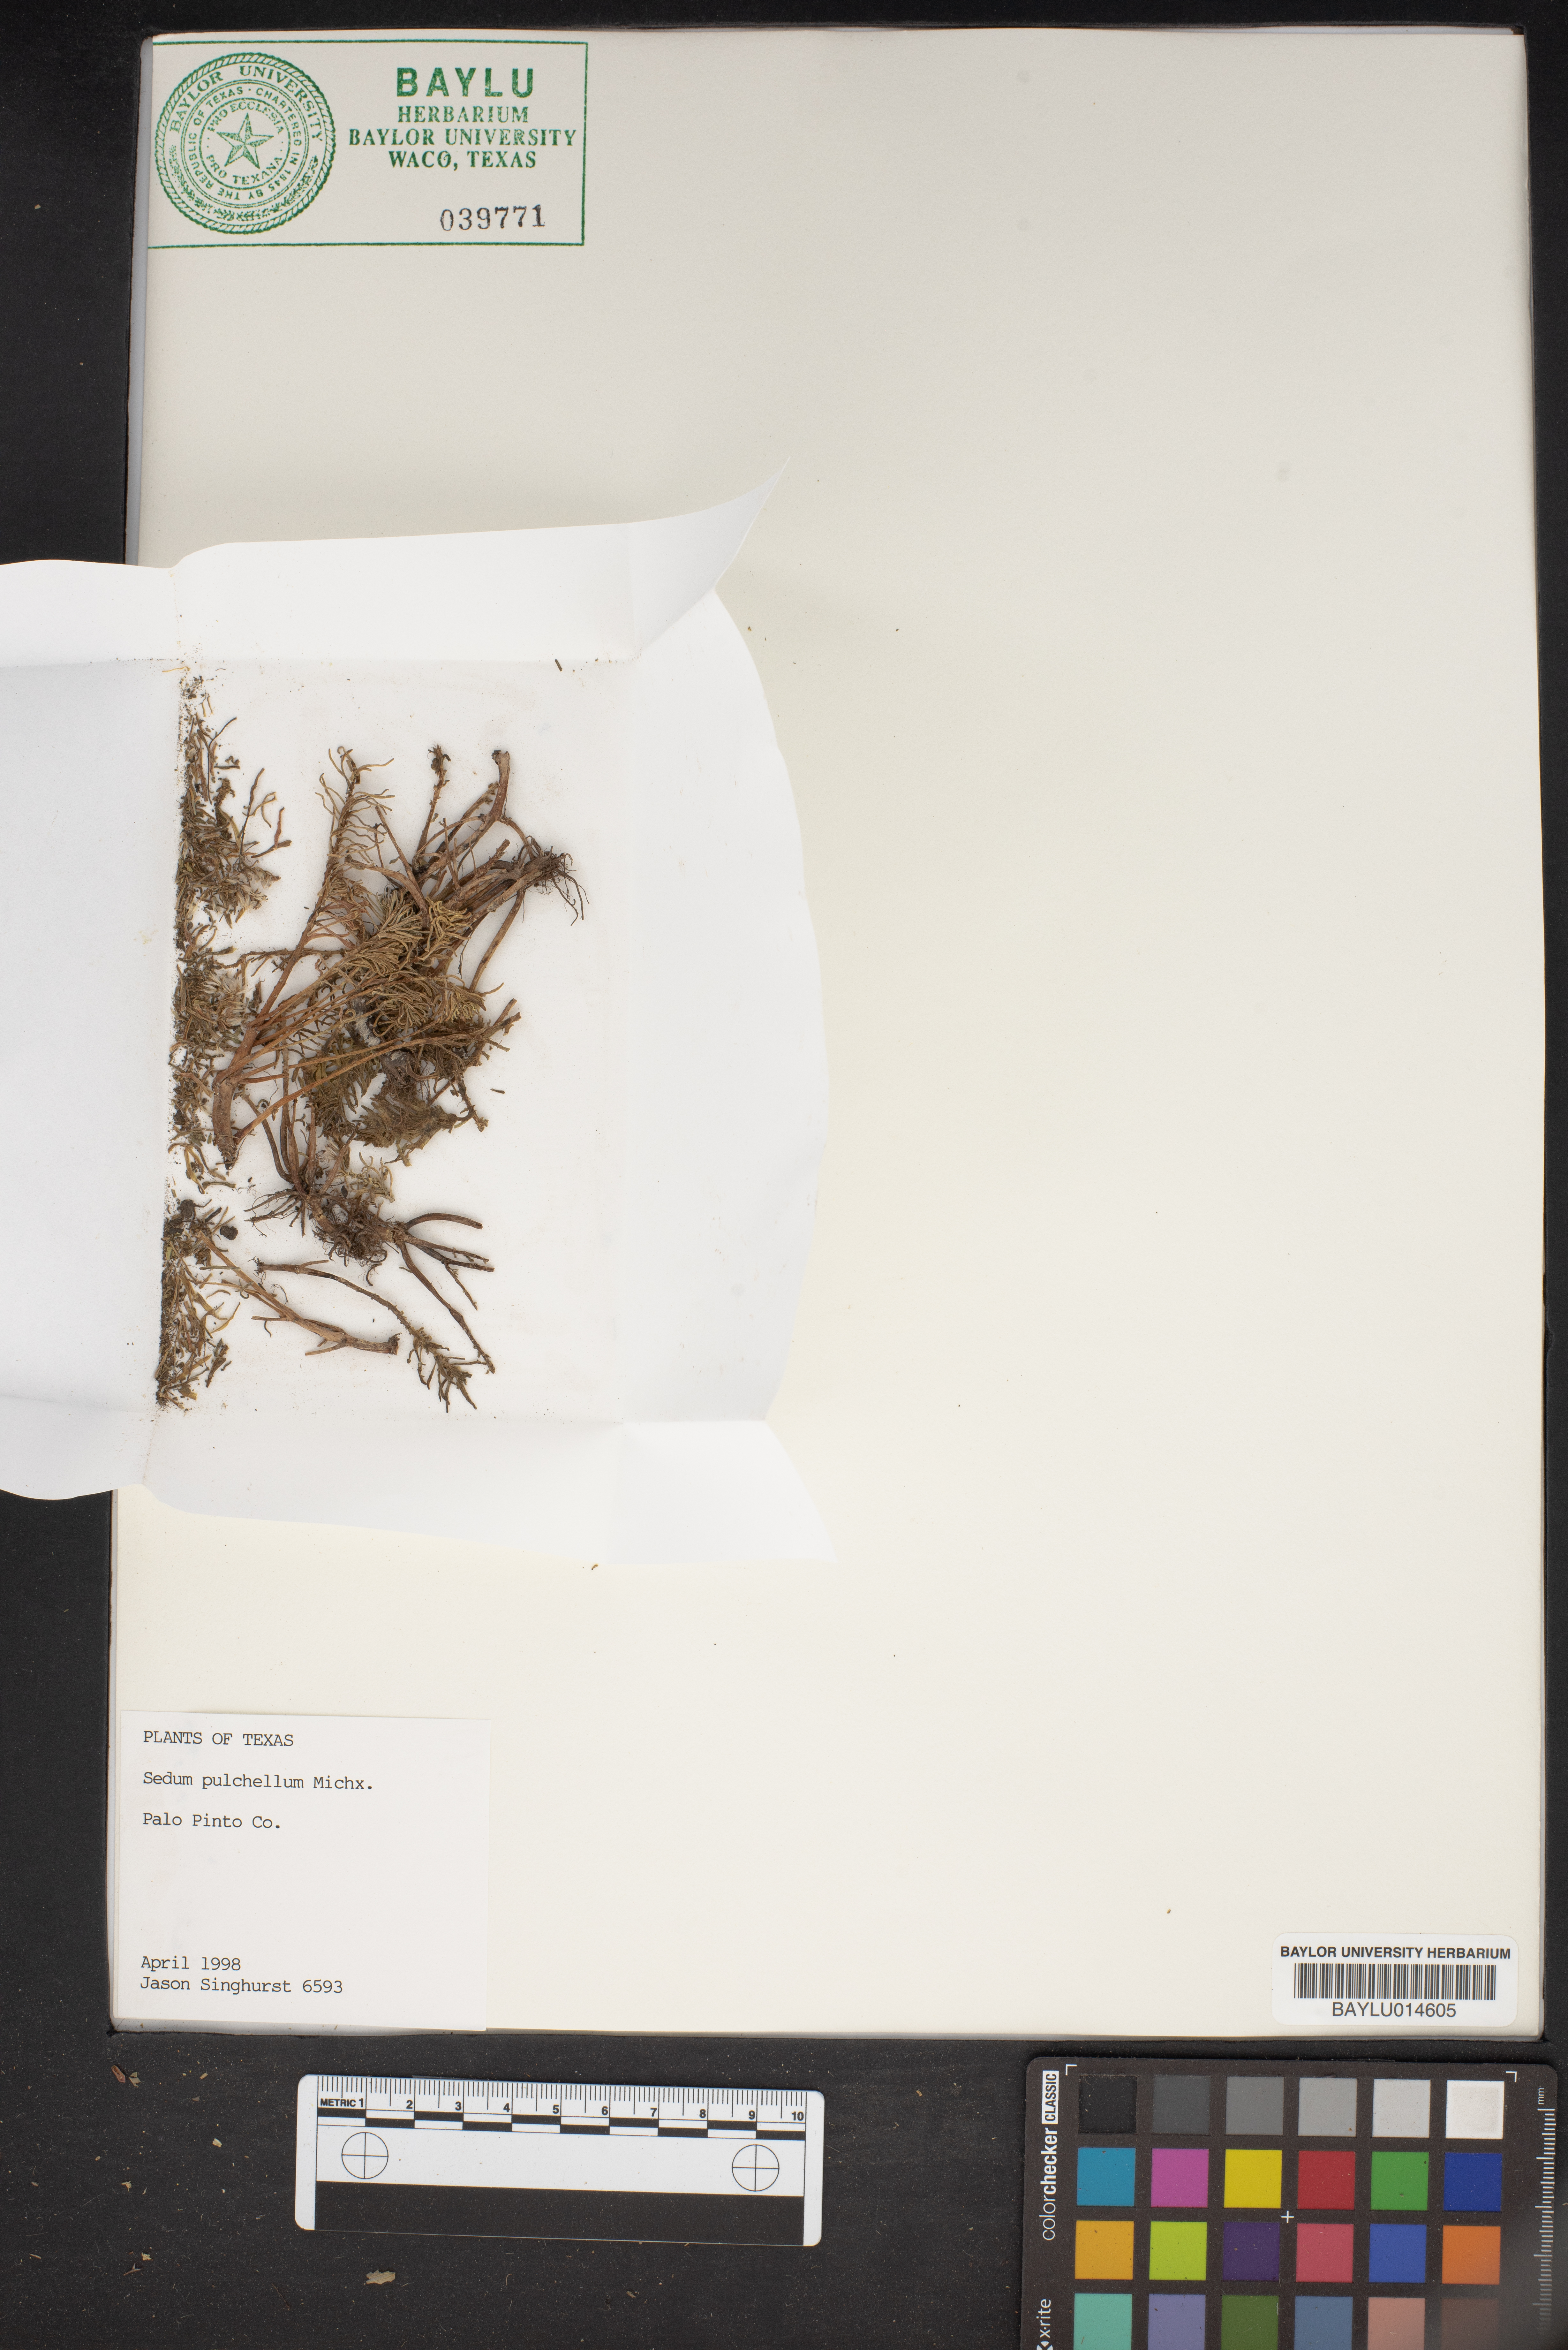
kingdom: Plantae
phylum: Tracheophyta
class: Magnoliopsida
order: Saxifragales
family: Crassulaceae
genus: Sedum
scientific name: Sedum pulchellum
